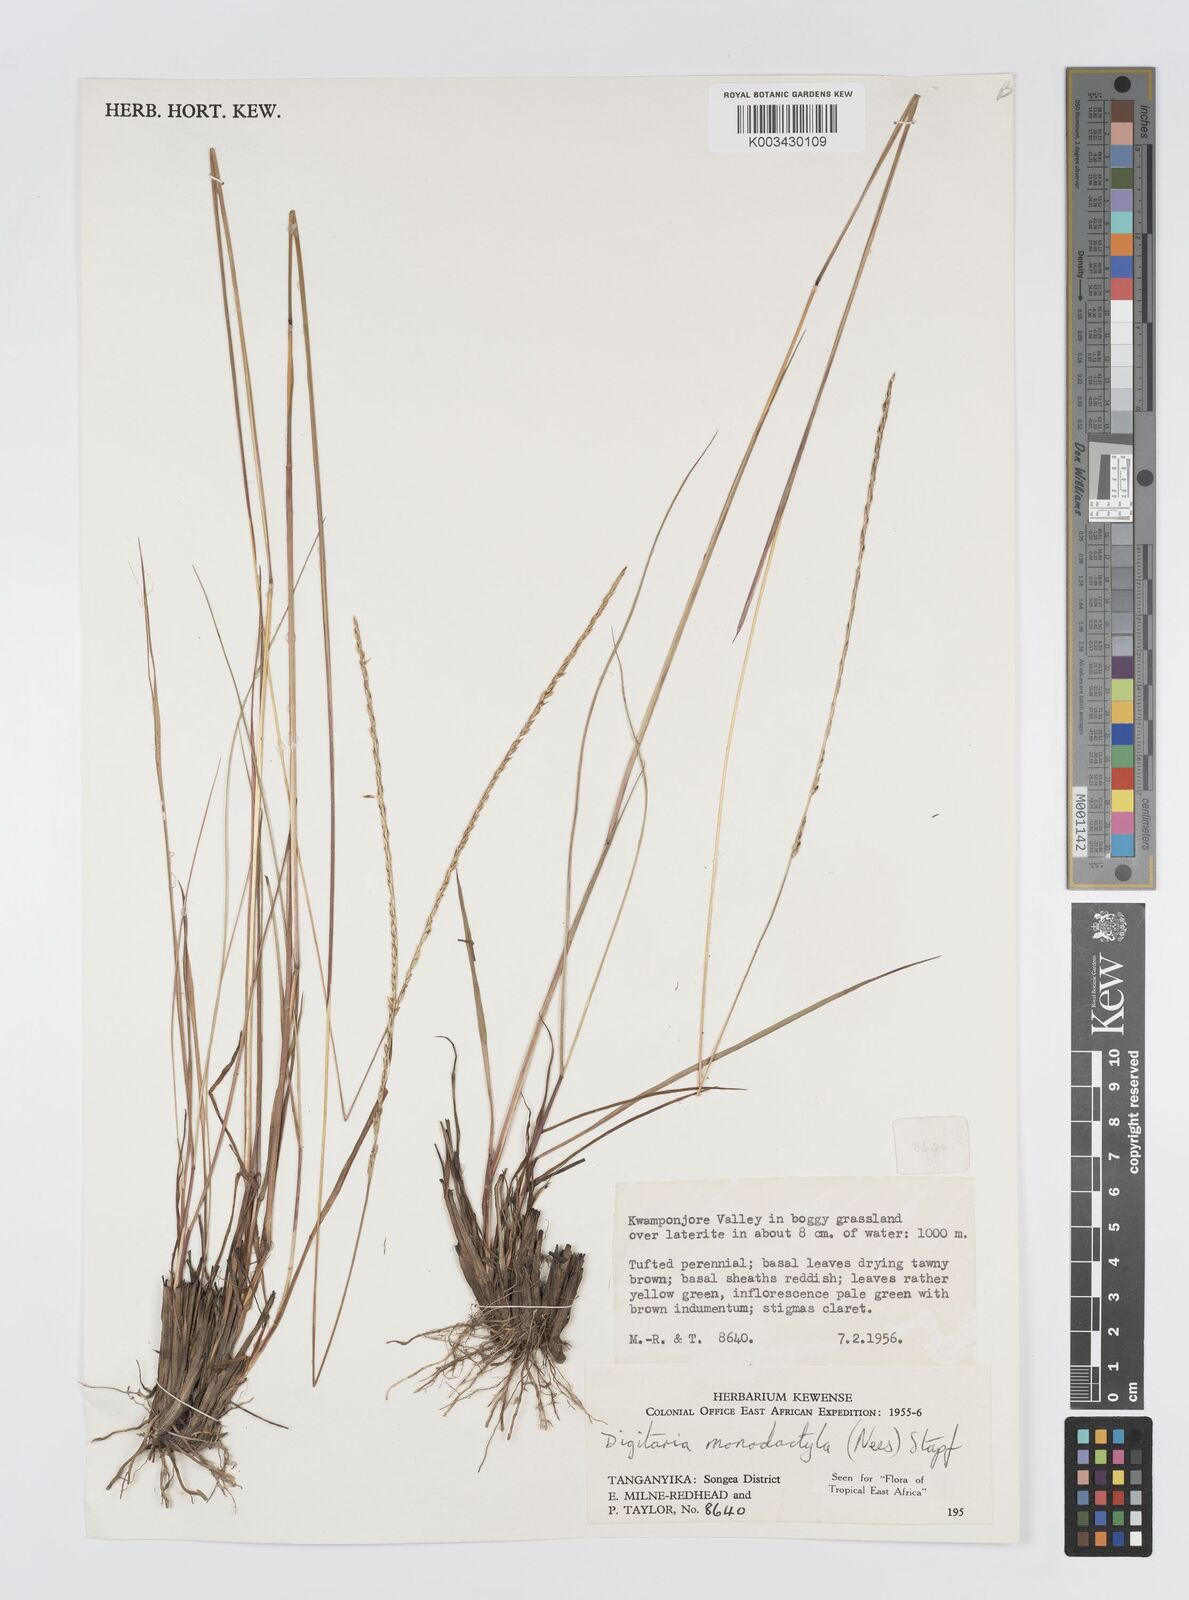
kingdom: Plantae
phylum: Tracheophyta
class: Liliopsida
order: Poales
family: Poaceae
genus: Digitaria
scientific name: Digitaria monodactyla
